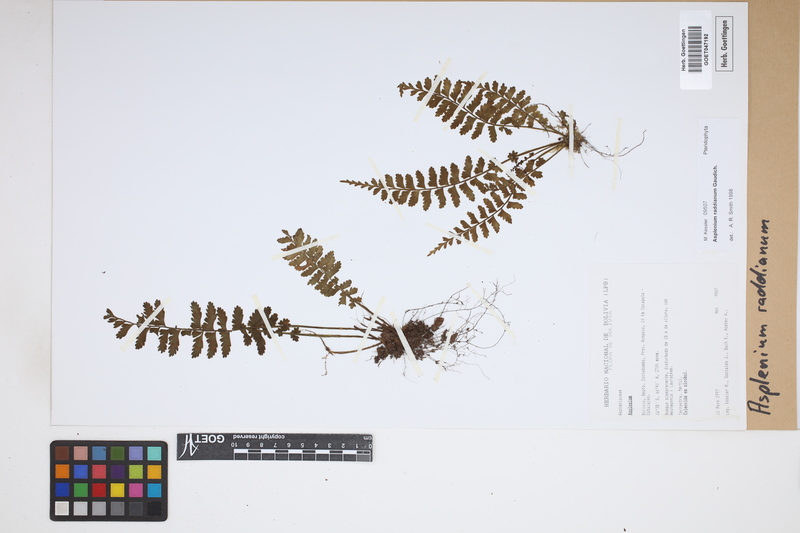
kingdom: Plantae
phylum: Tracheophyta
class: Polypodiopsida
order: Polypodiales
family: Aspleniaceae
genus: Asplenium
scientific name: Asplenium raddianum
